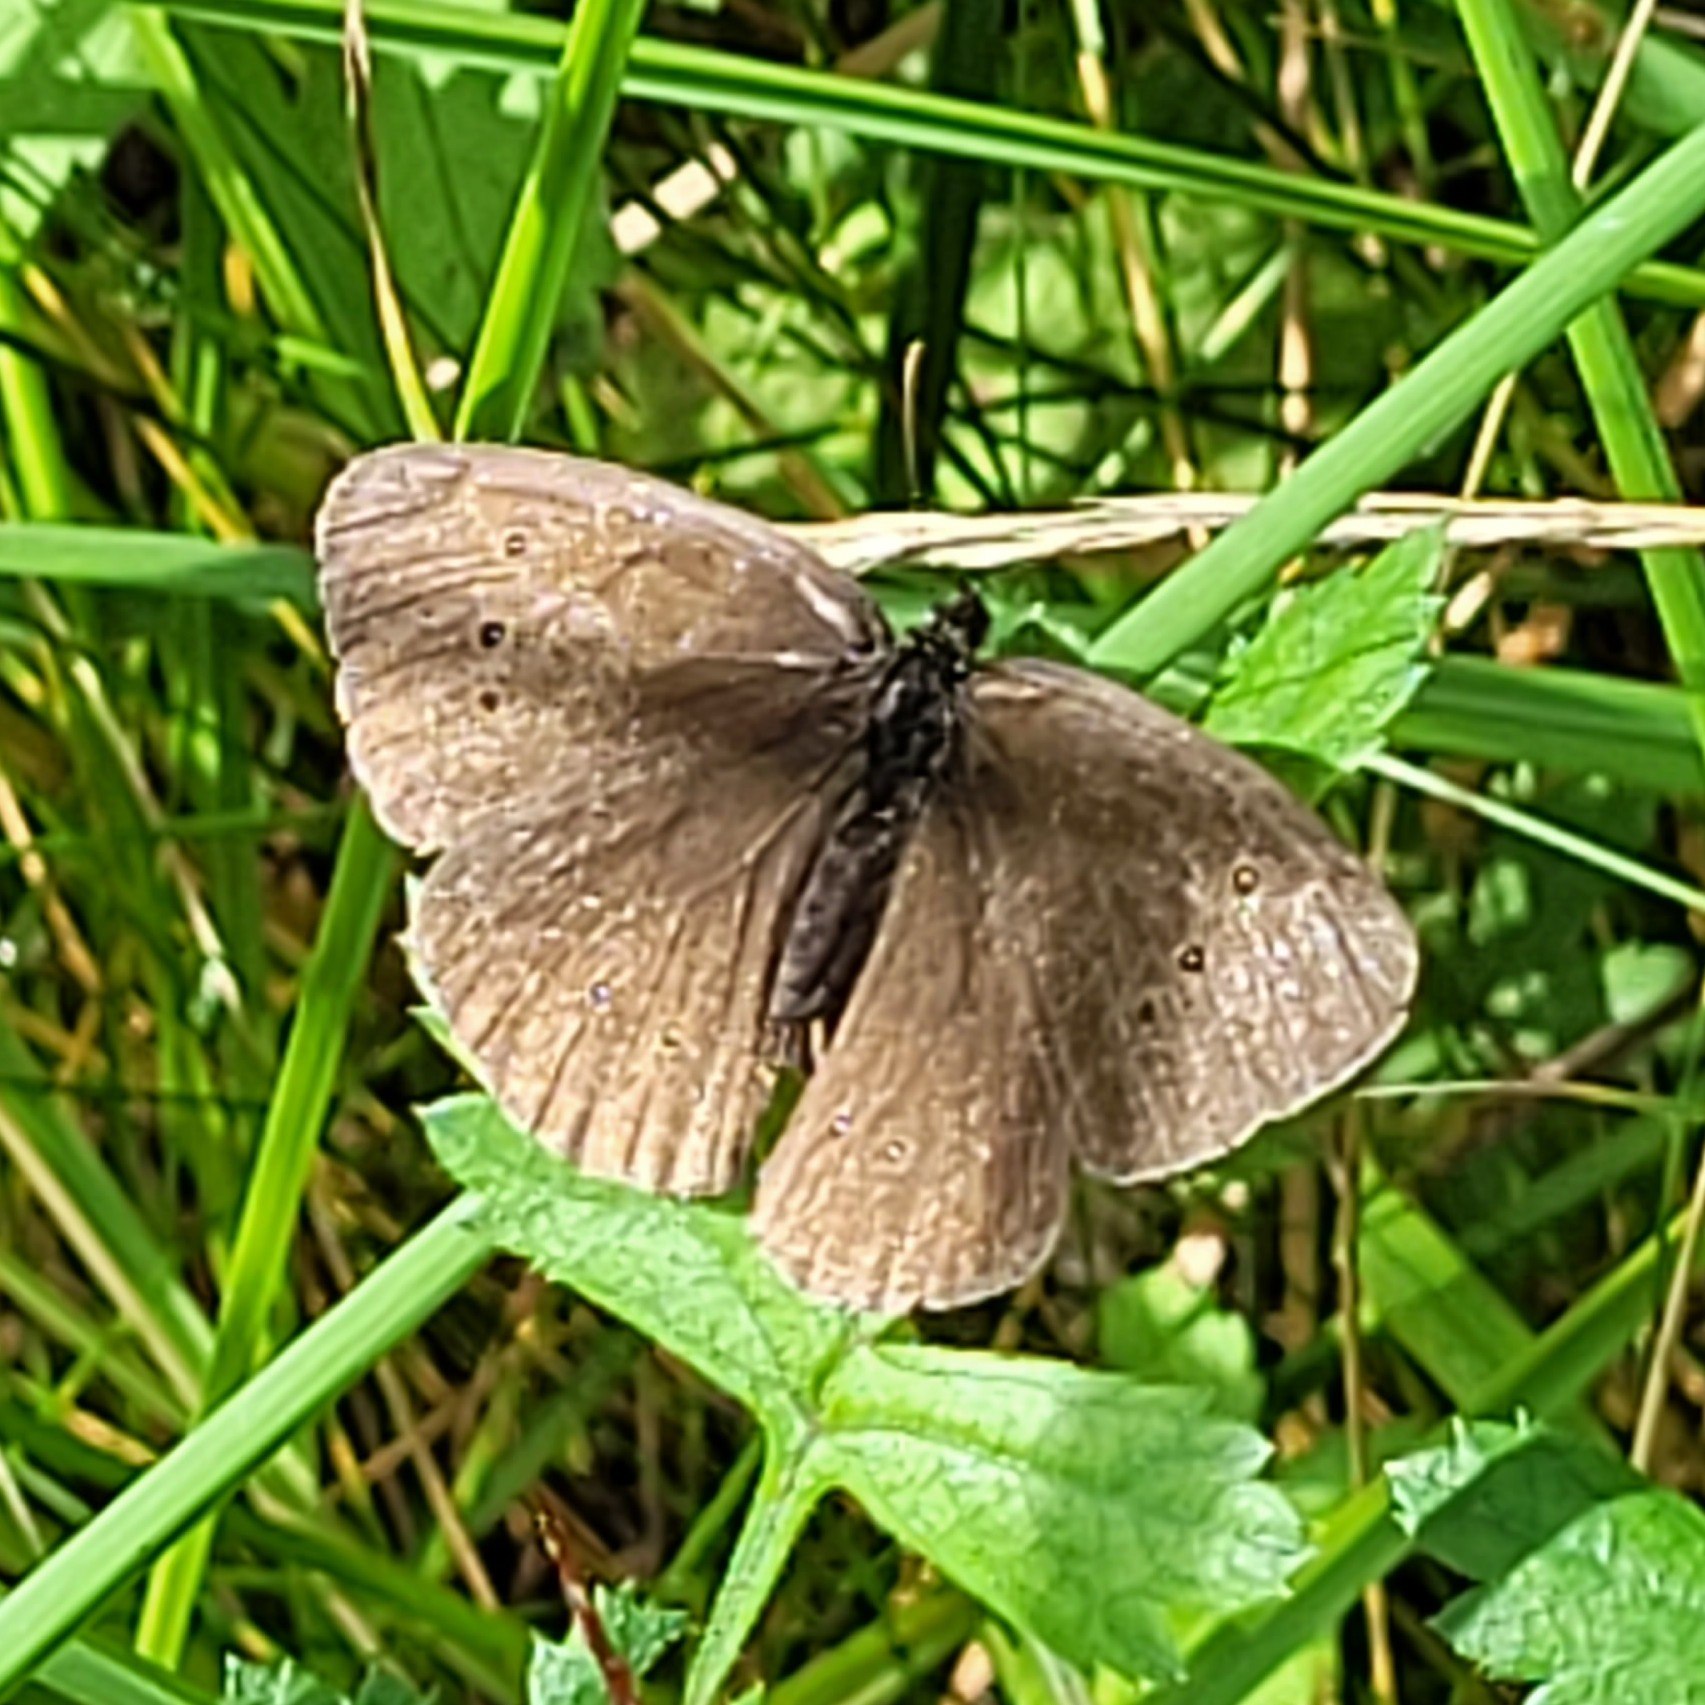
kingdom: Animalia
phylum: Arthropoda
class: Insecta
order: Lepidoptera
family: Nymphalidae
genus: Aphantopus
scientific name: Aphantopus hyperantus
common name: Engrandøje
